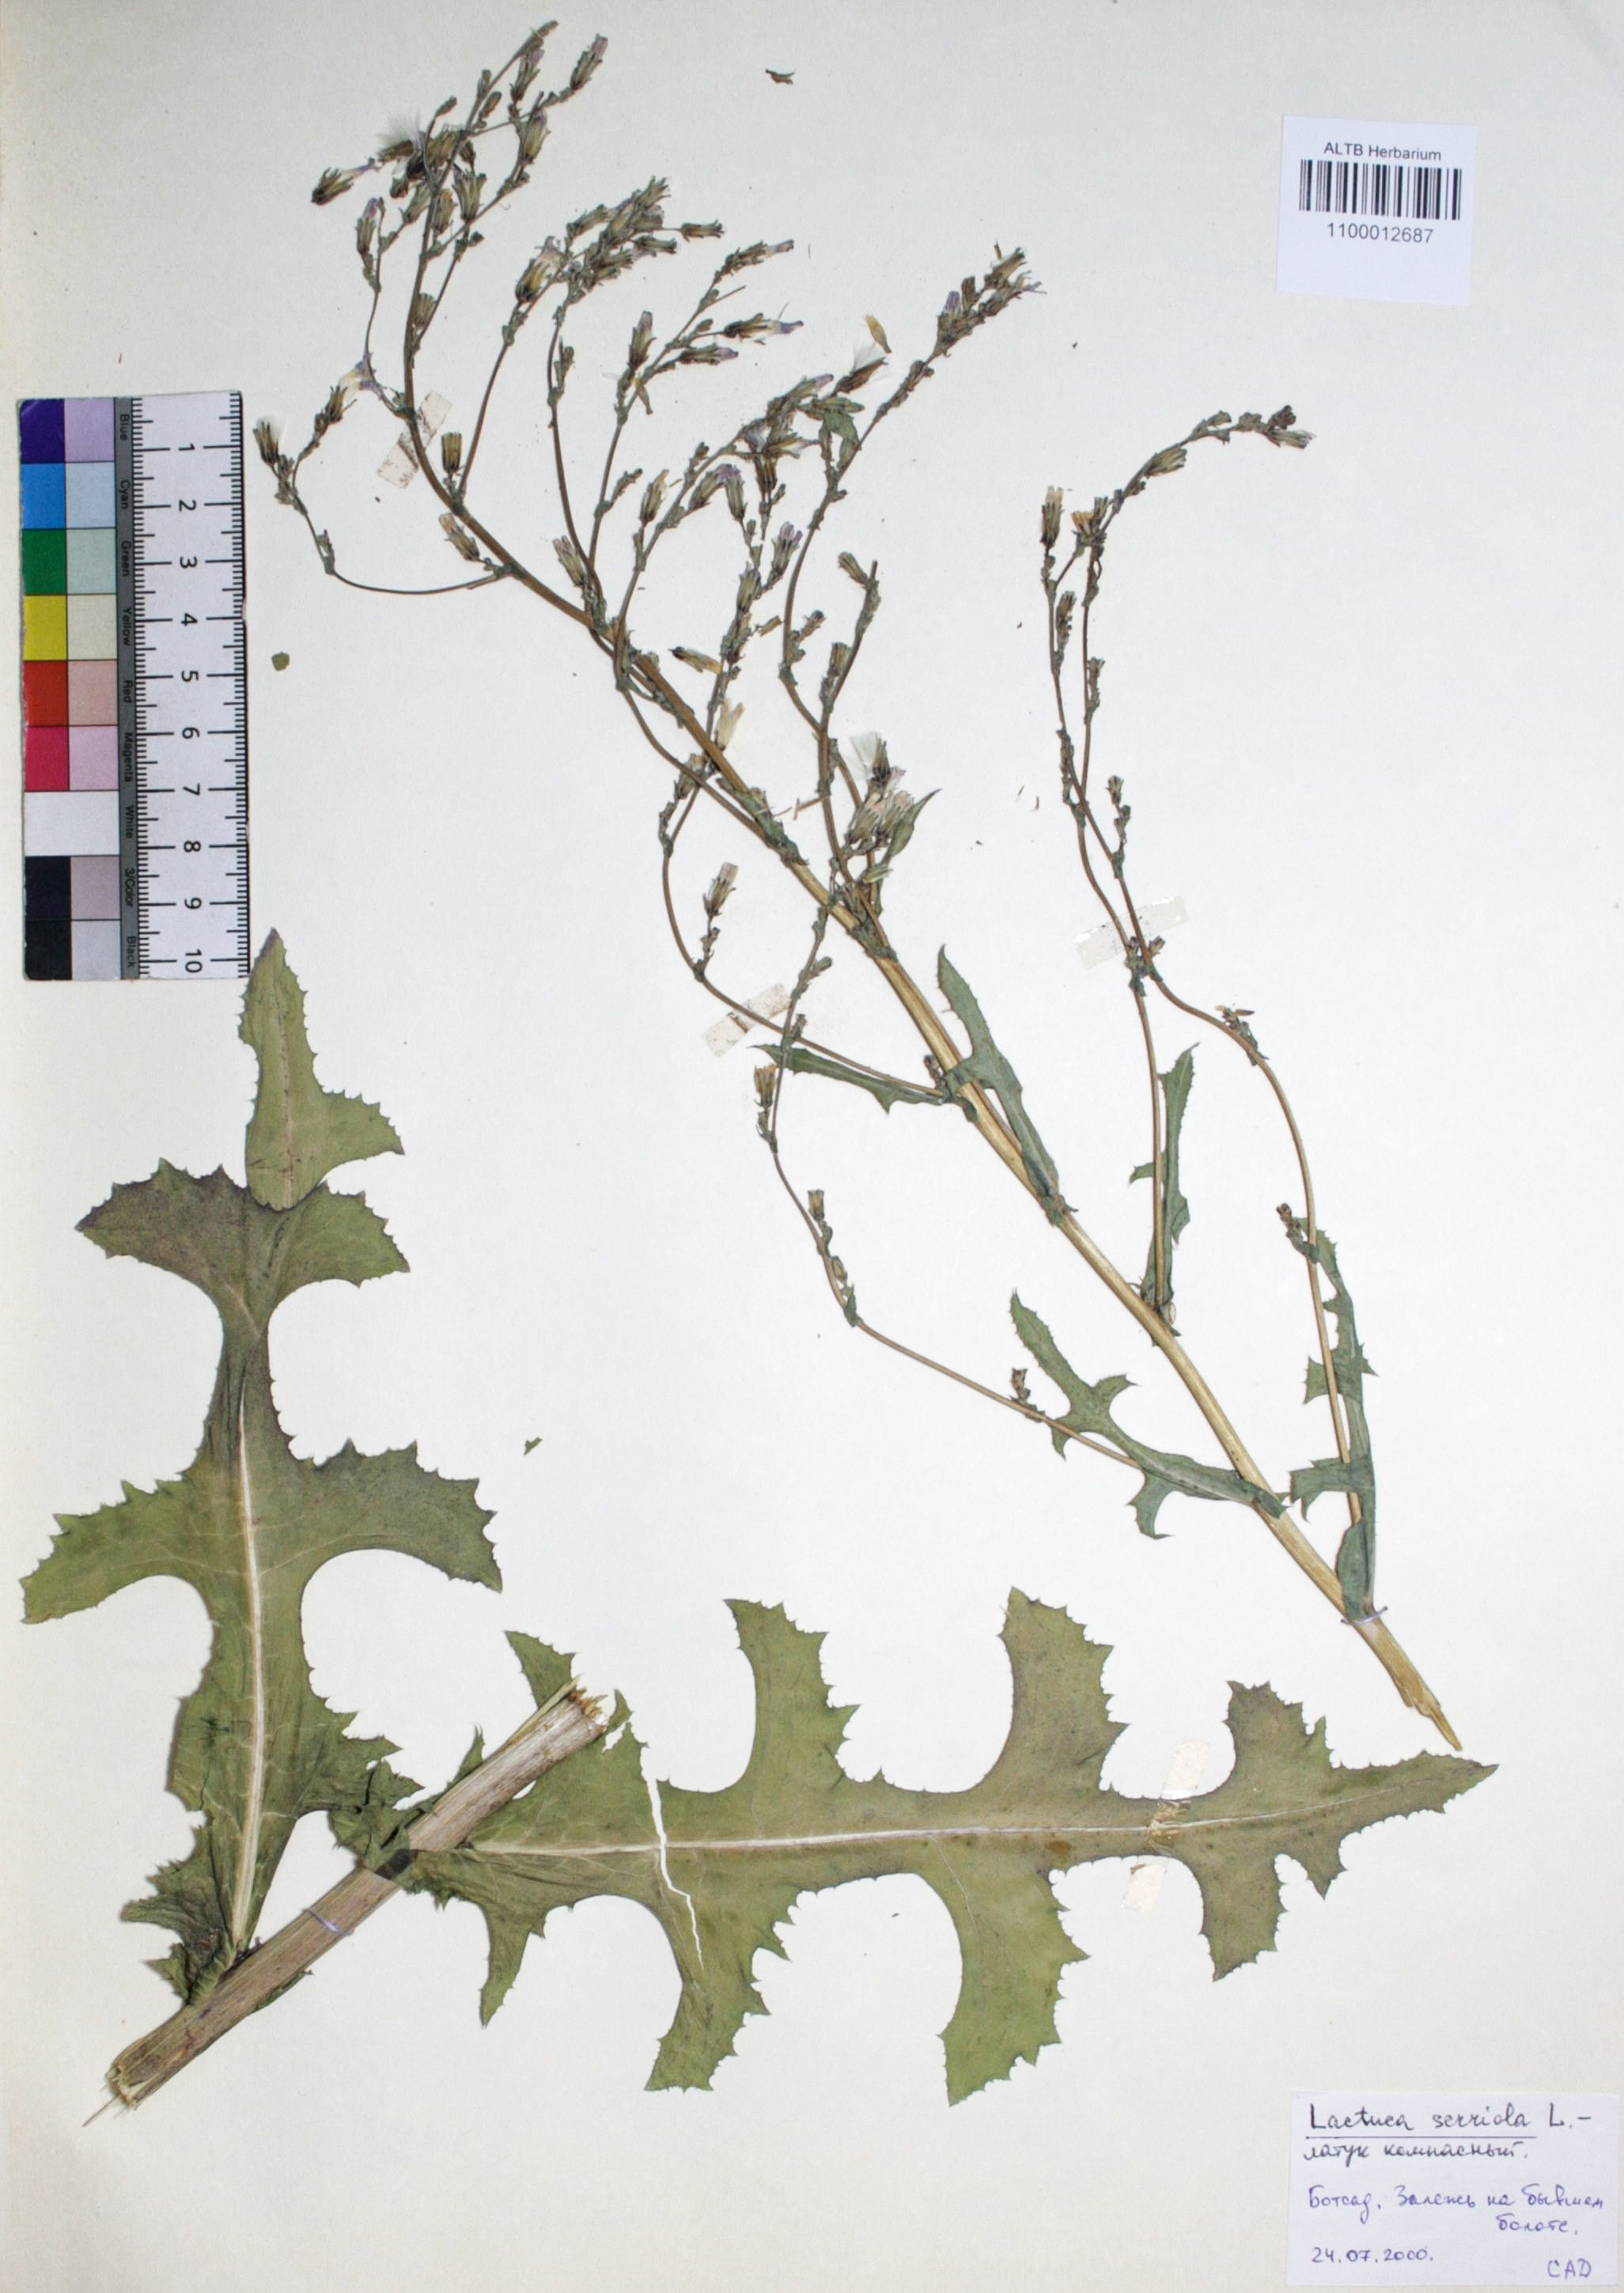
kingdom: Plantae
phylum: Tracheophyta
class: Magnoliopsida
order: Asterales
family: Asteraceae
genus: Lactuca
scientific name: Lactuca serriola
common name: Prickly lettuce
